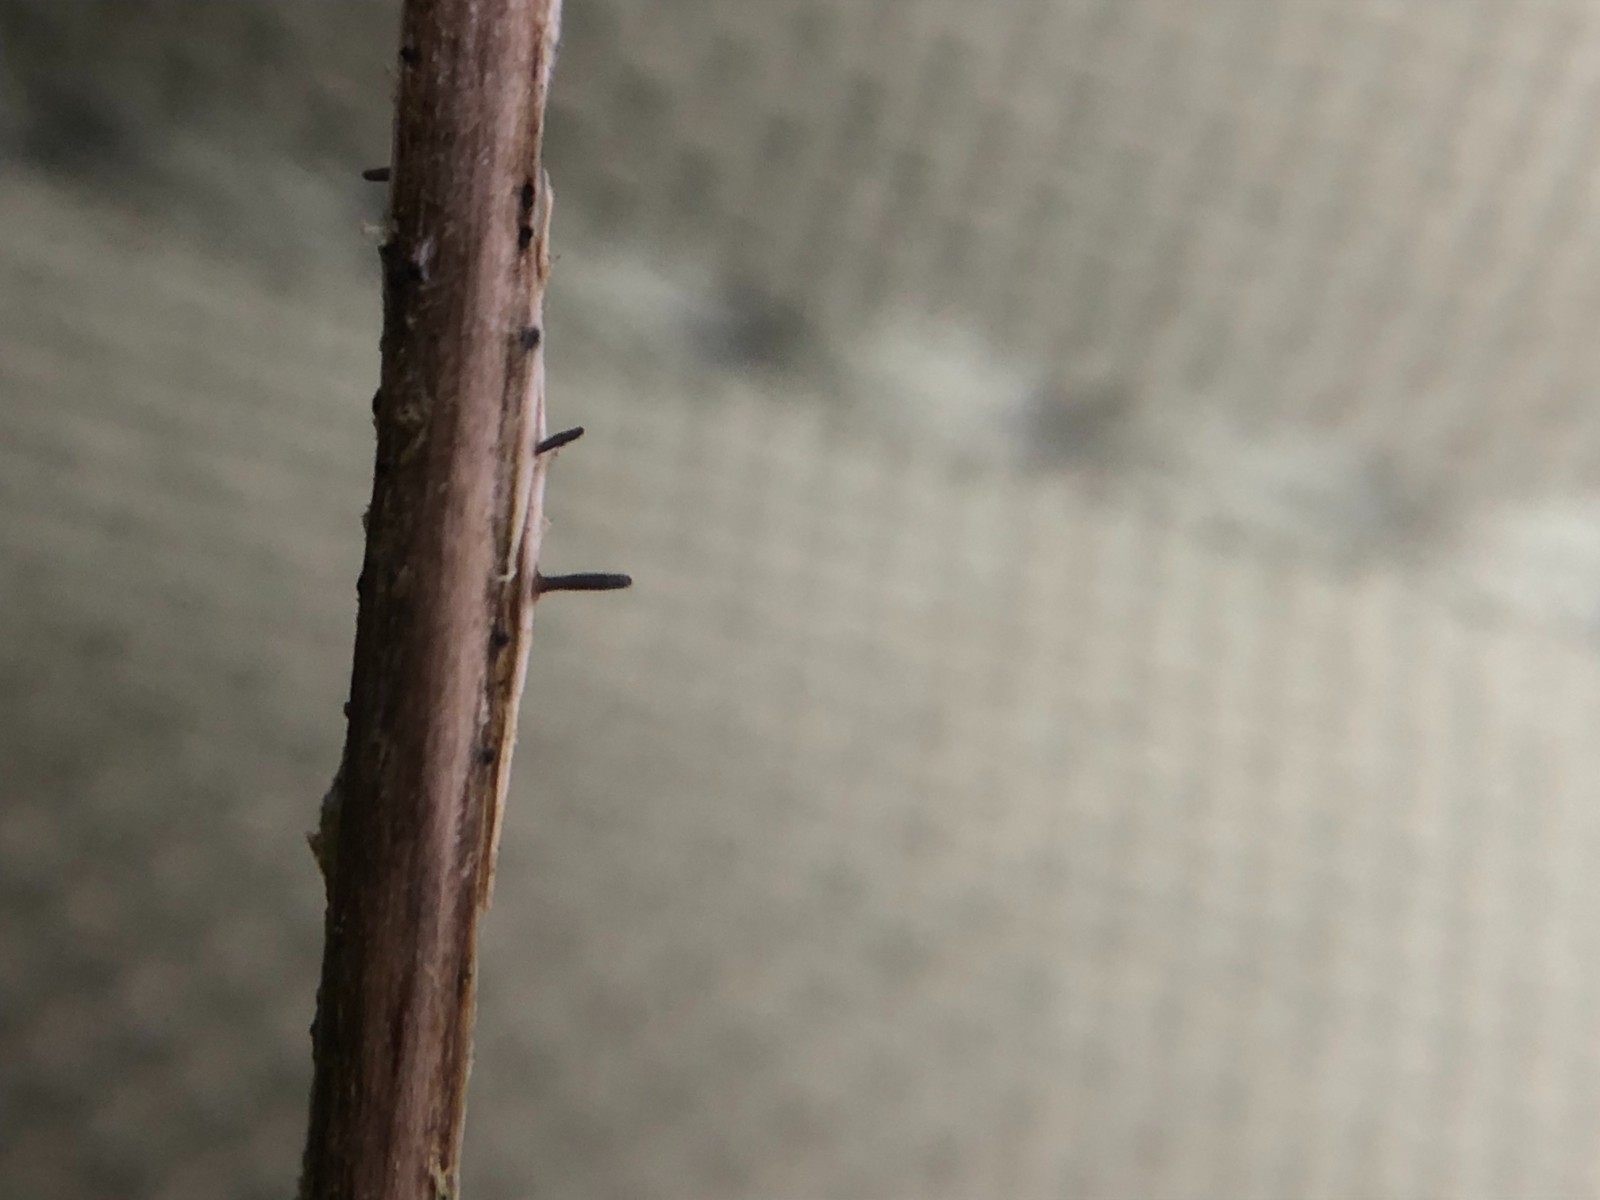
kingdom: Fungi
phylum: Ascomycota
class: Dothideomycetes
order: Acrospermales
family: Acrospermaceae
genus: Acrospermum
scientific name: Acrospermum pallidulum
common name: snerre-stængeltunge
